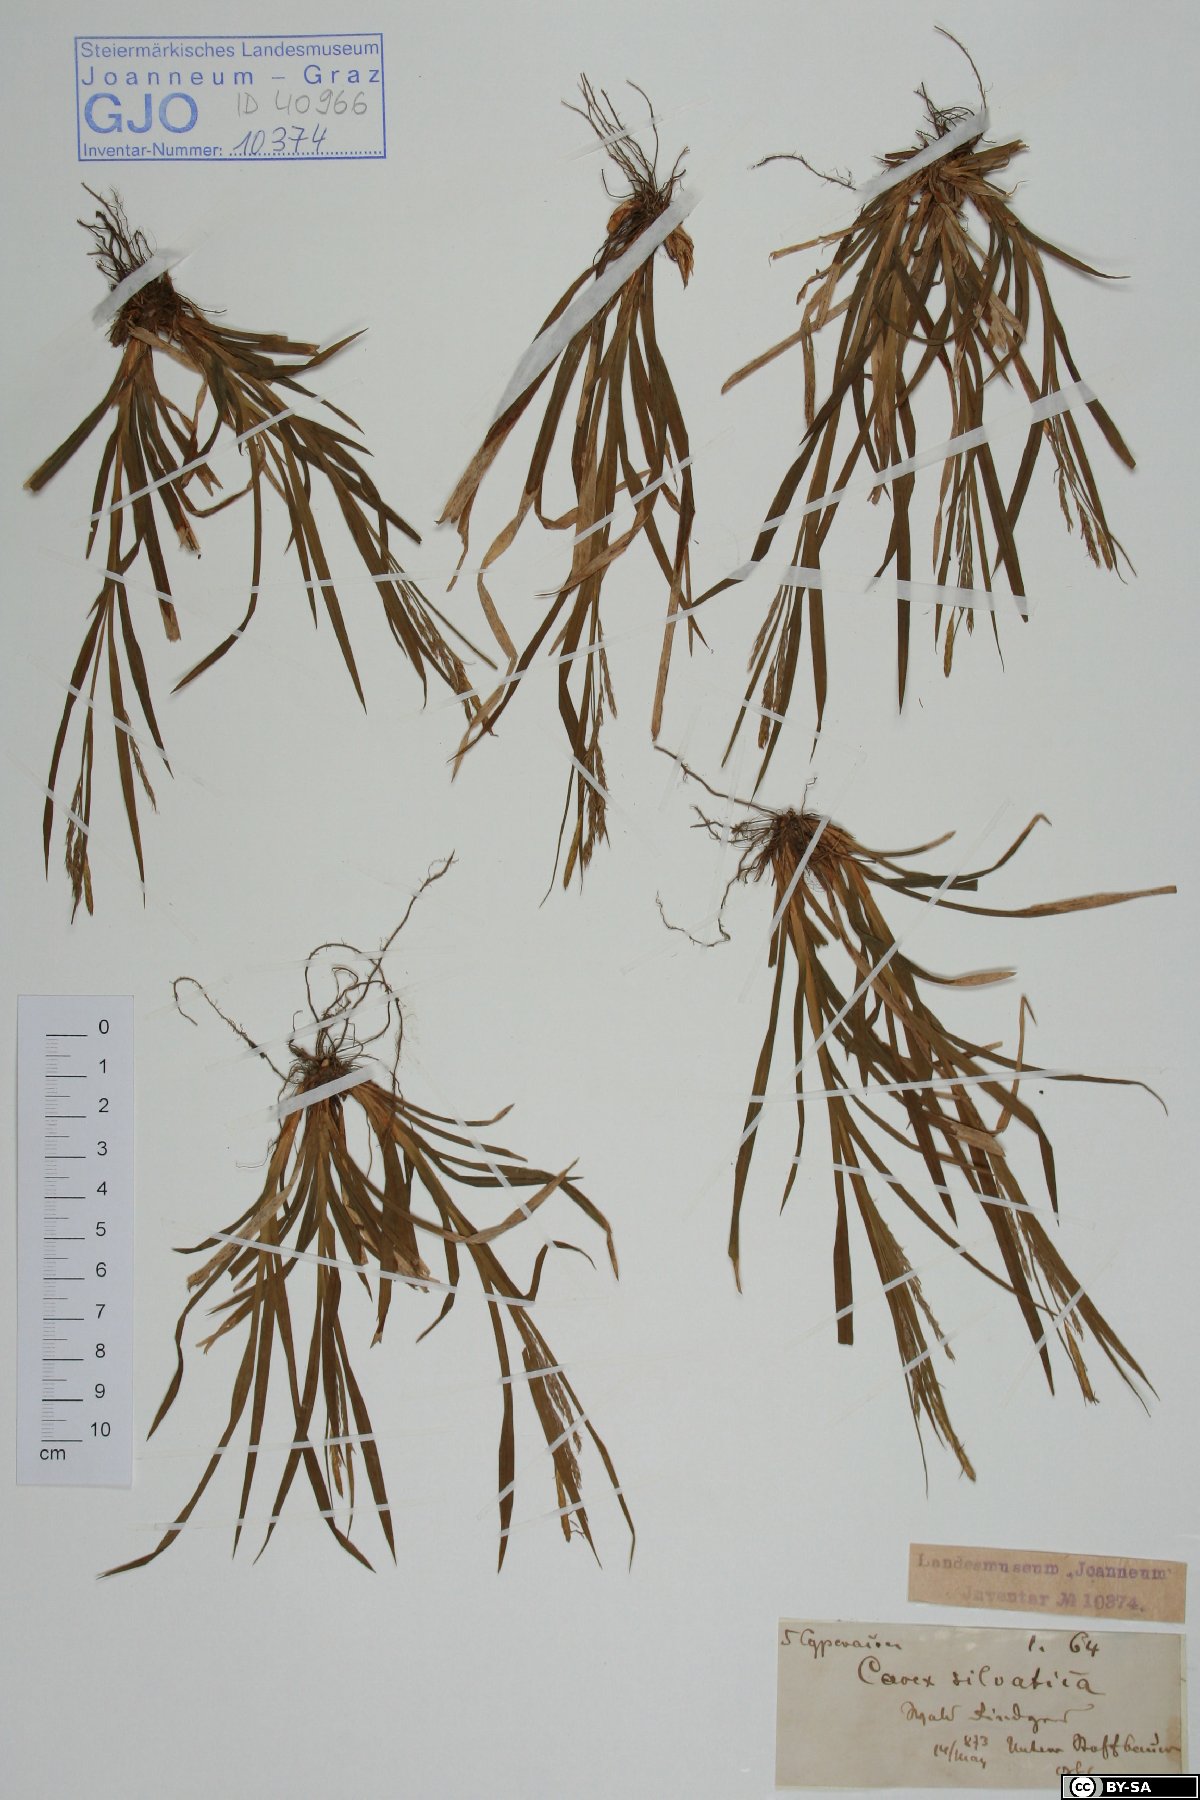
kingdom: Plantae
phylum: Tracheophyta
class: Liliopsida
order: Poales
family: Cyperaceae
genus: Carex
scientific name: Carex sylvatica
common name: Wood-sedge
